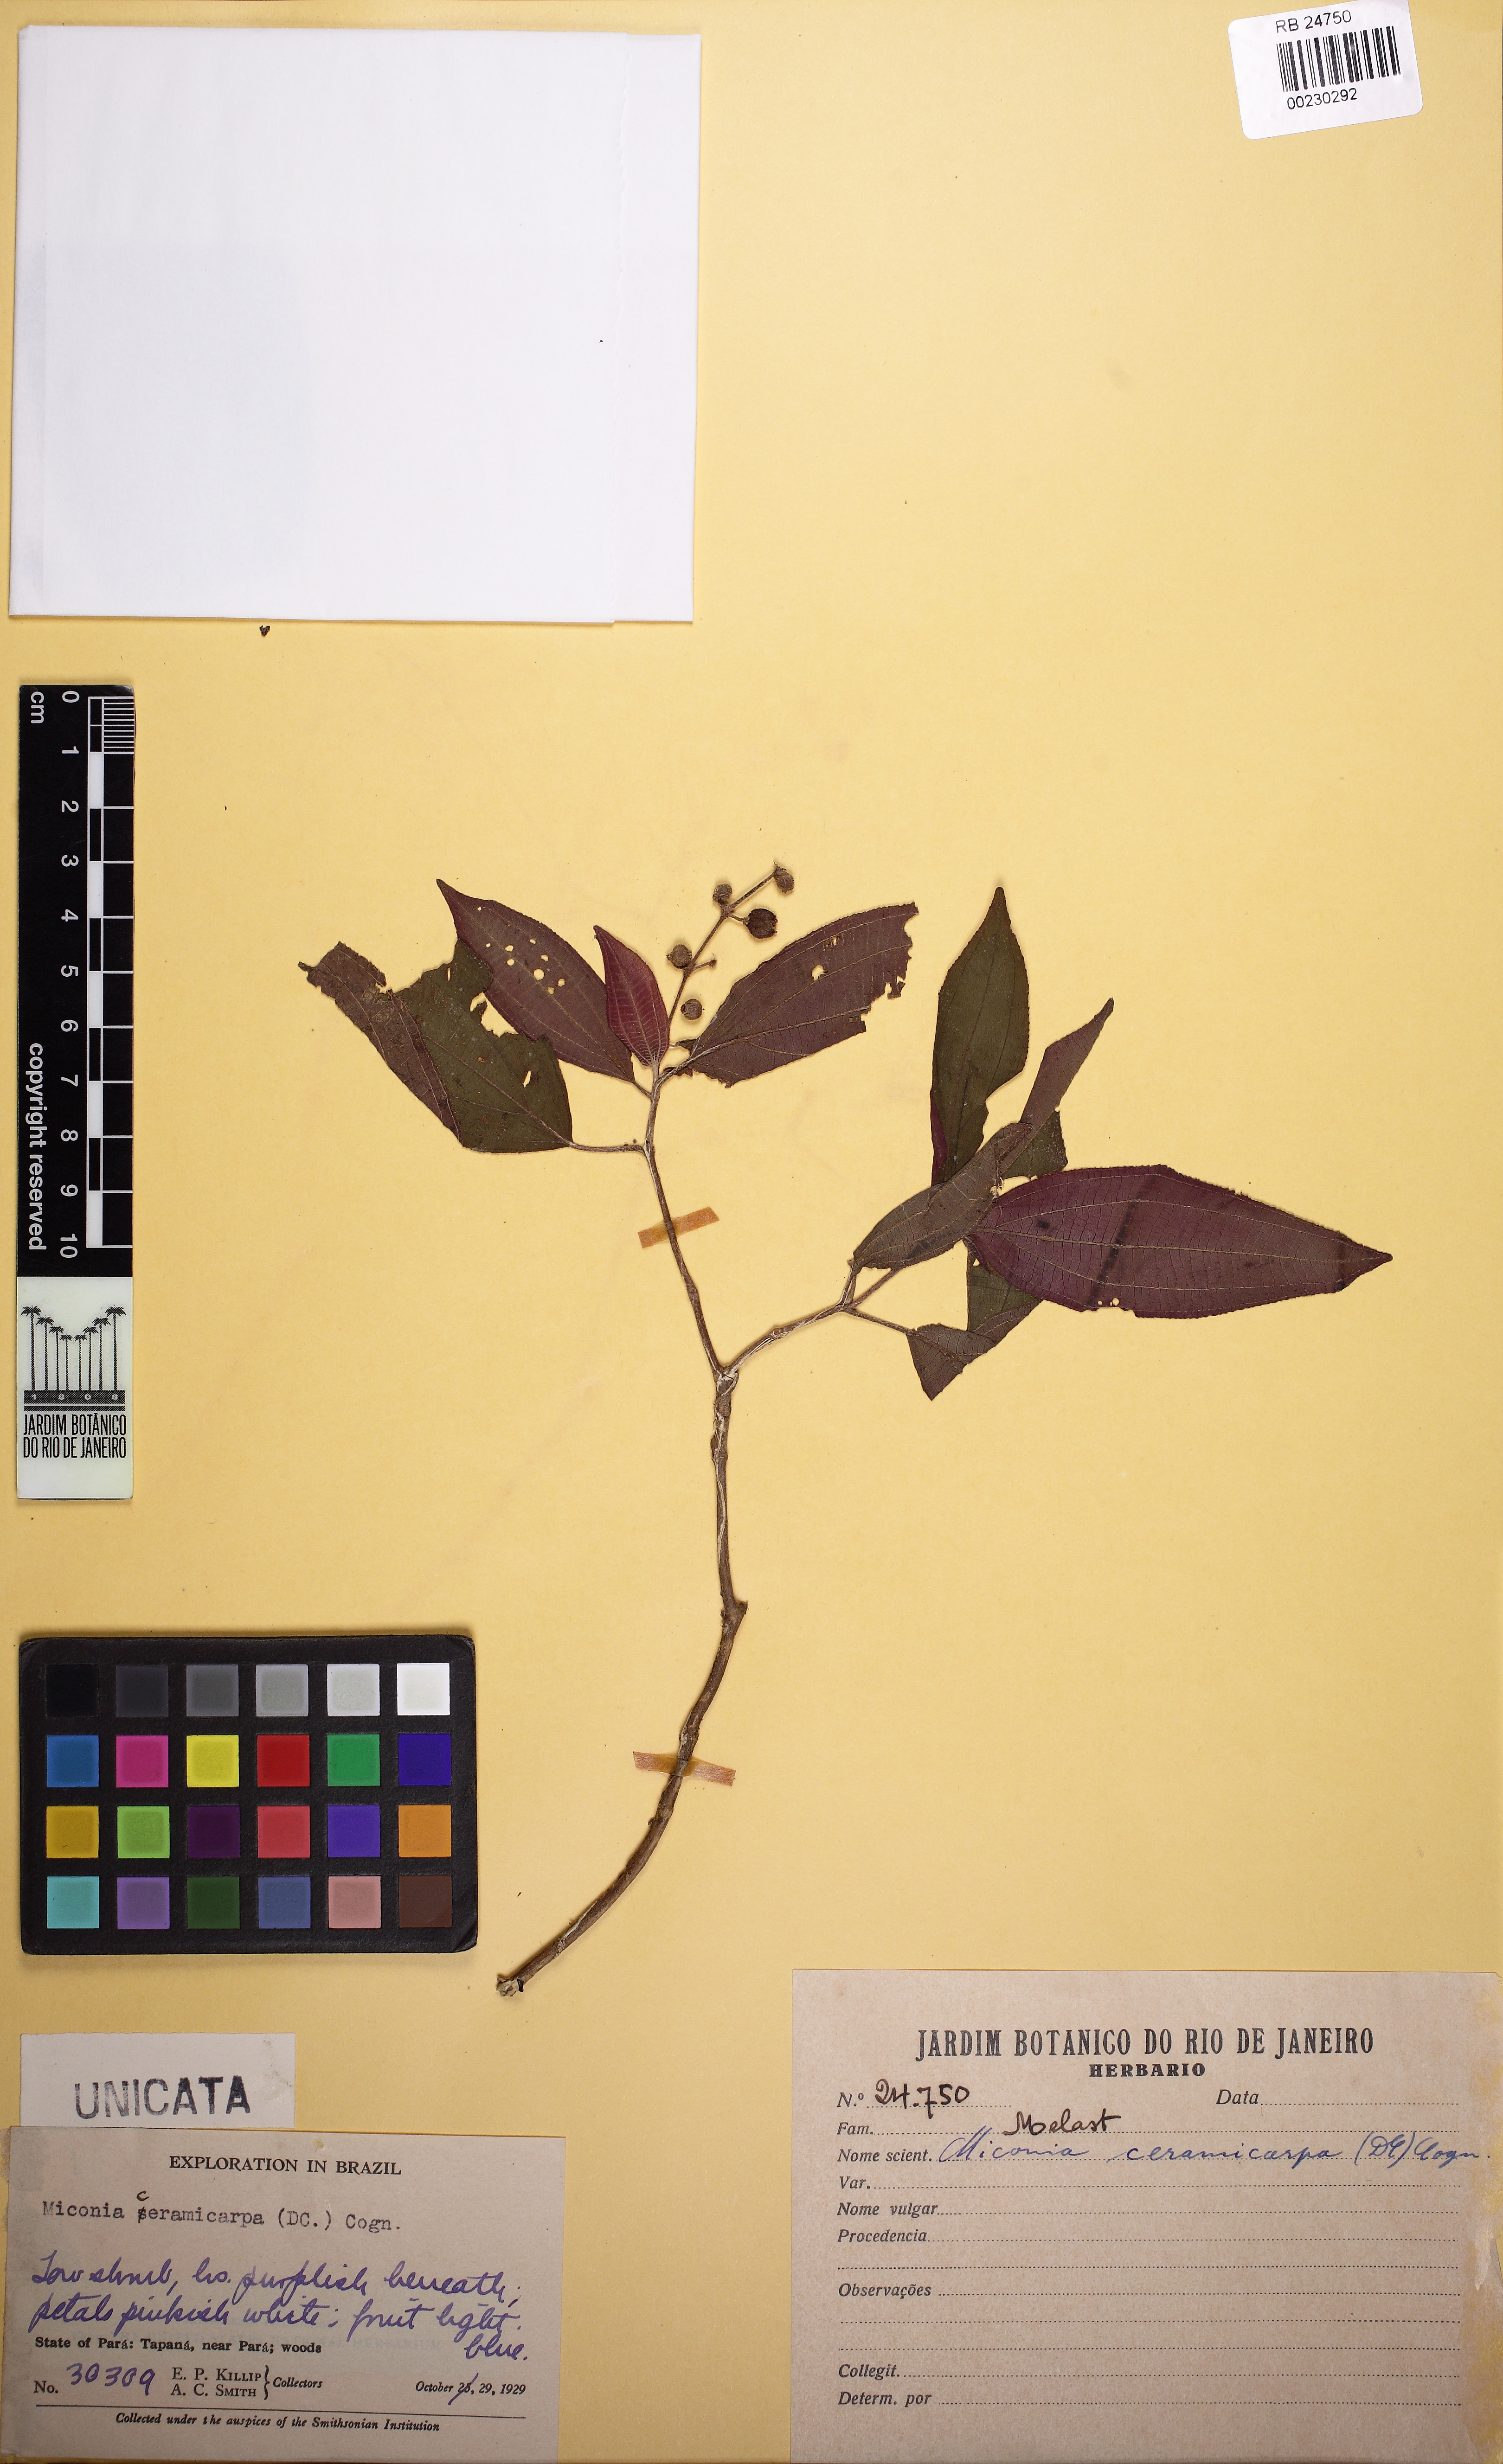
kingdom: Plantae
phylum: Tracheophyta
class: Magnoliopsida
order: Myrtales
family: Melastomataceae
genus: Miconia
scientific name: Miconia ceramicarpa
